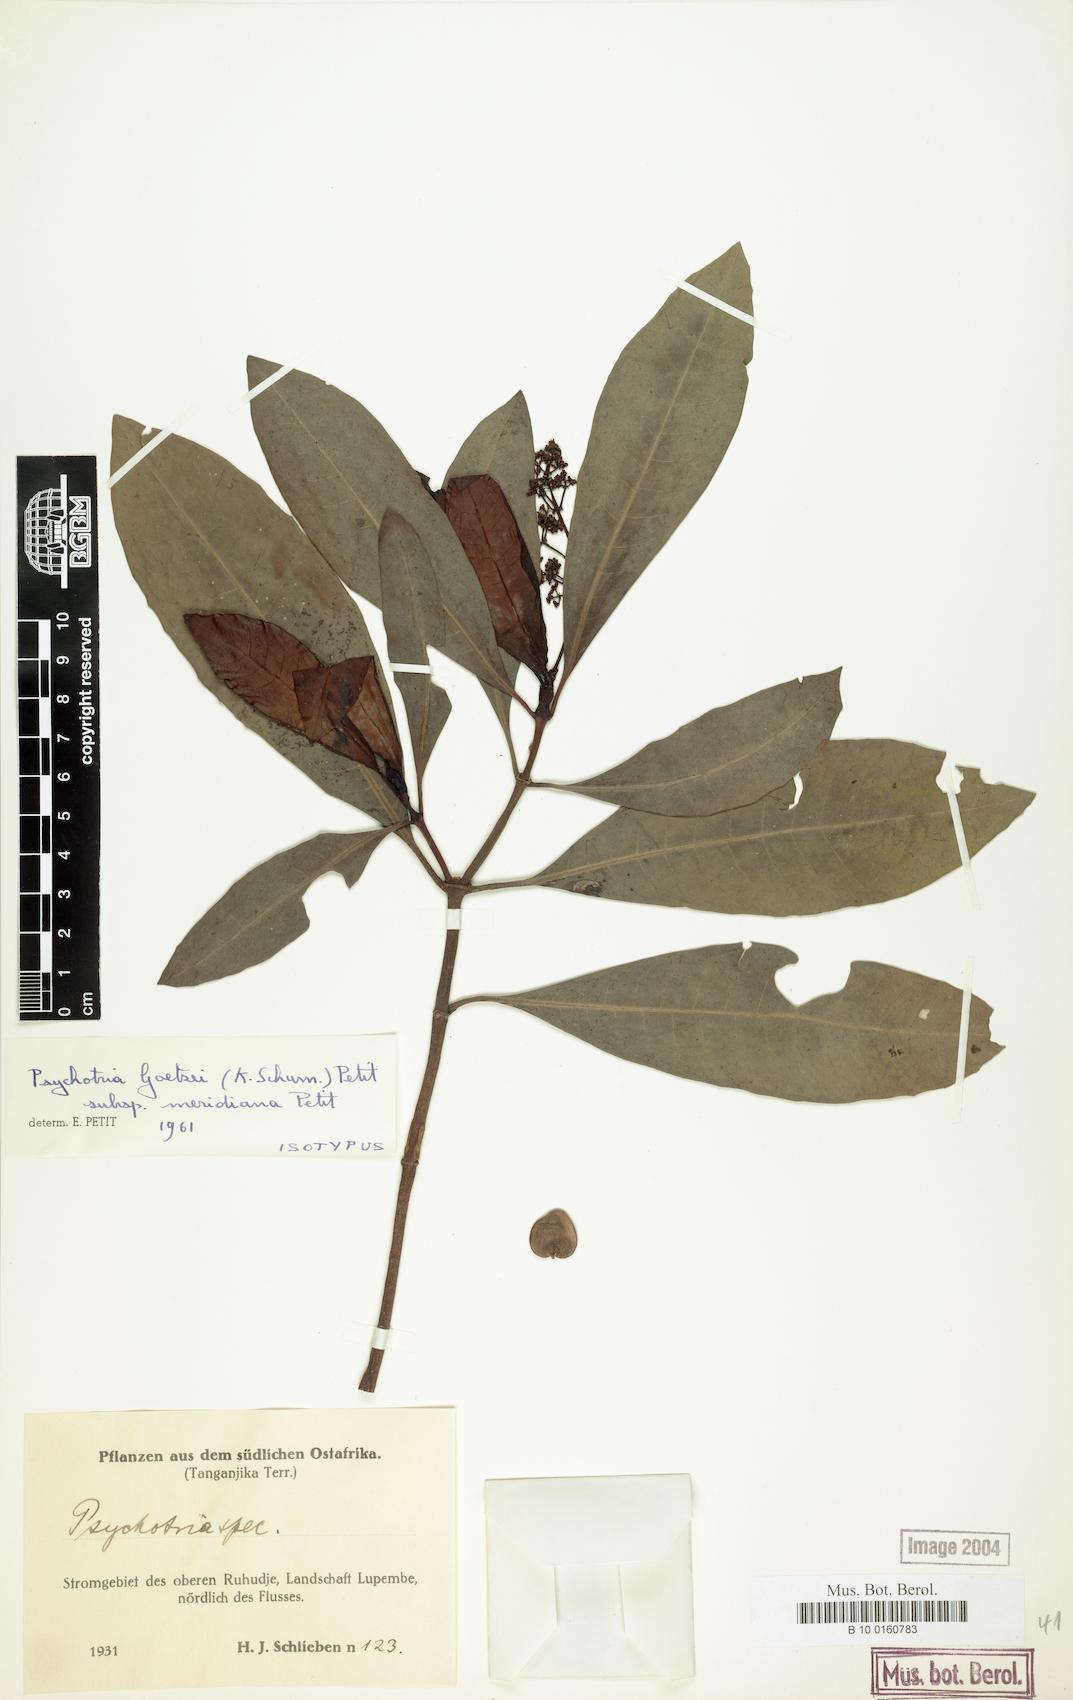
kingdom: Plantae
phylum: Tracheophyta
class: Magnoliopsida
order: Gentianales
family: Rubiaceae
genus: Psychotria
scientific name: Psychotria goetzei
